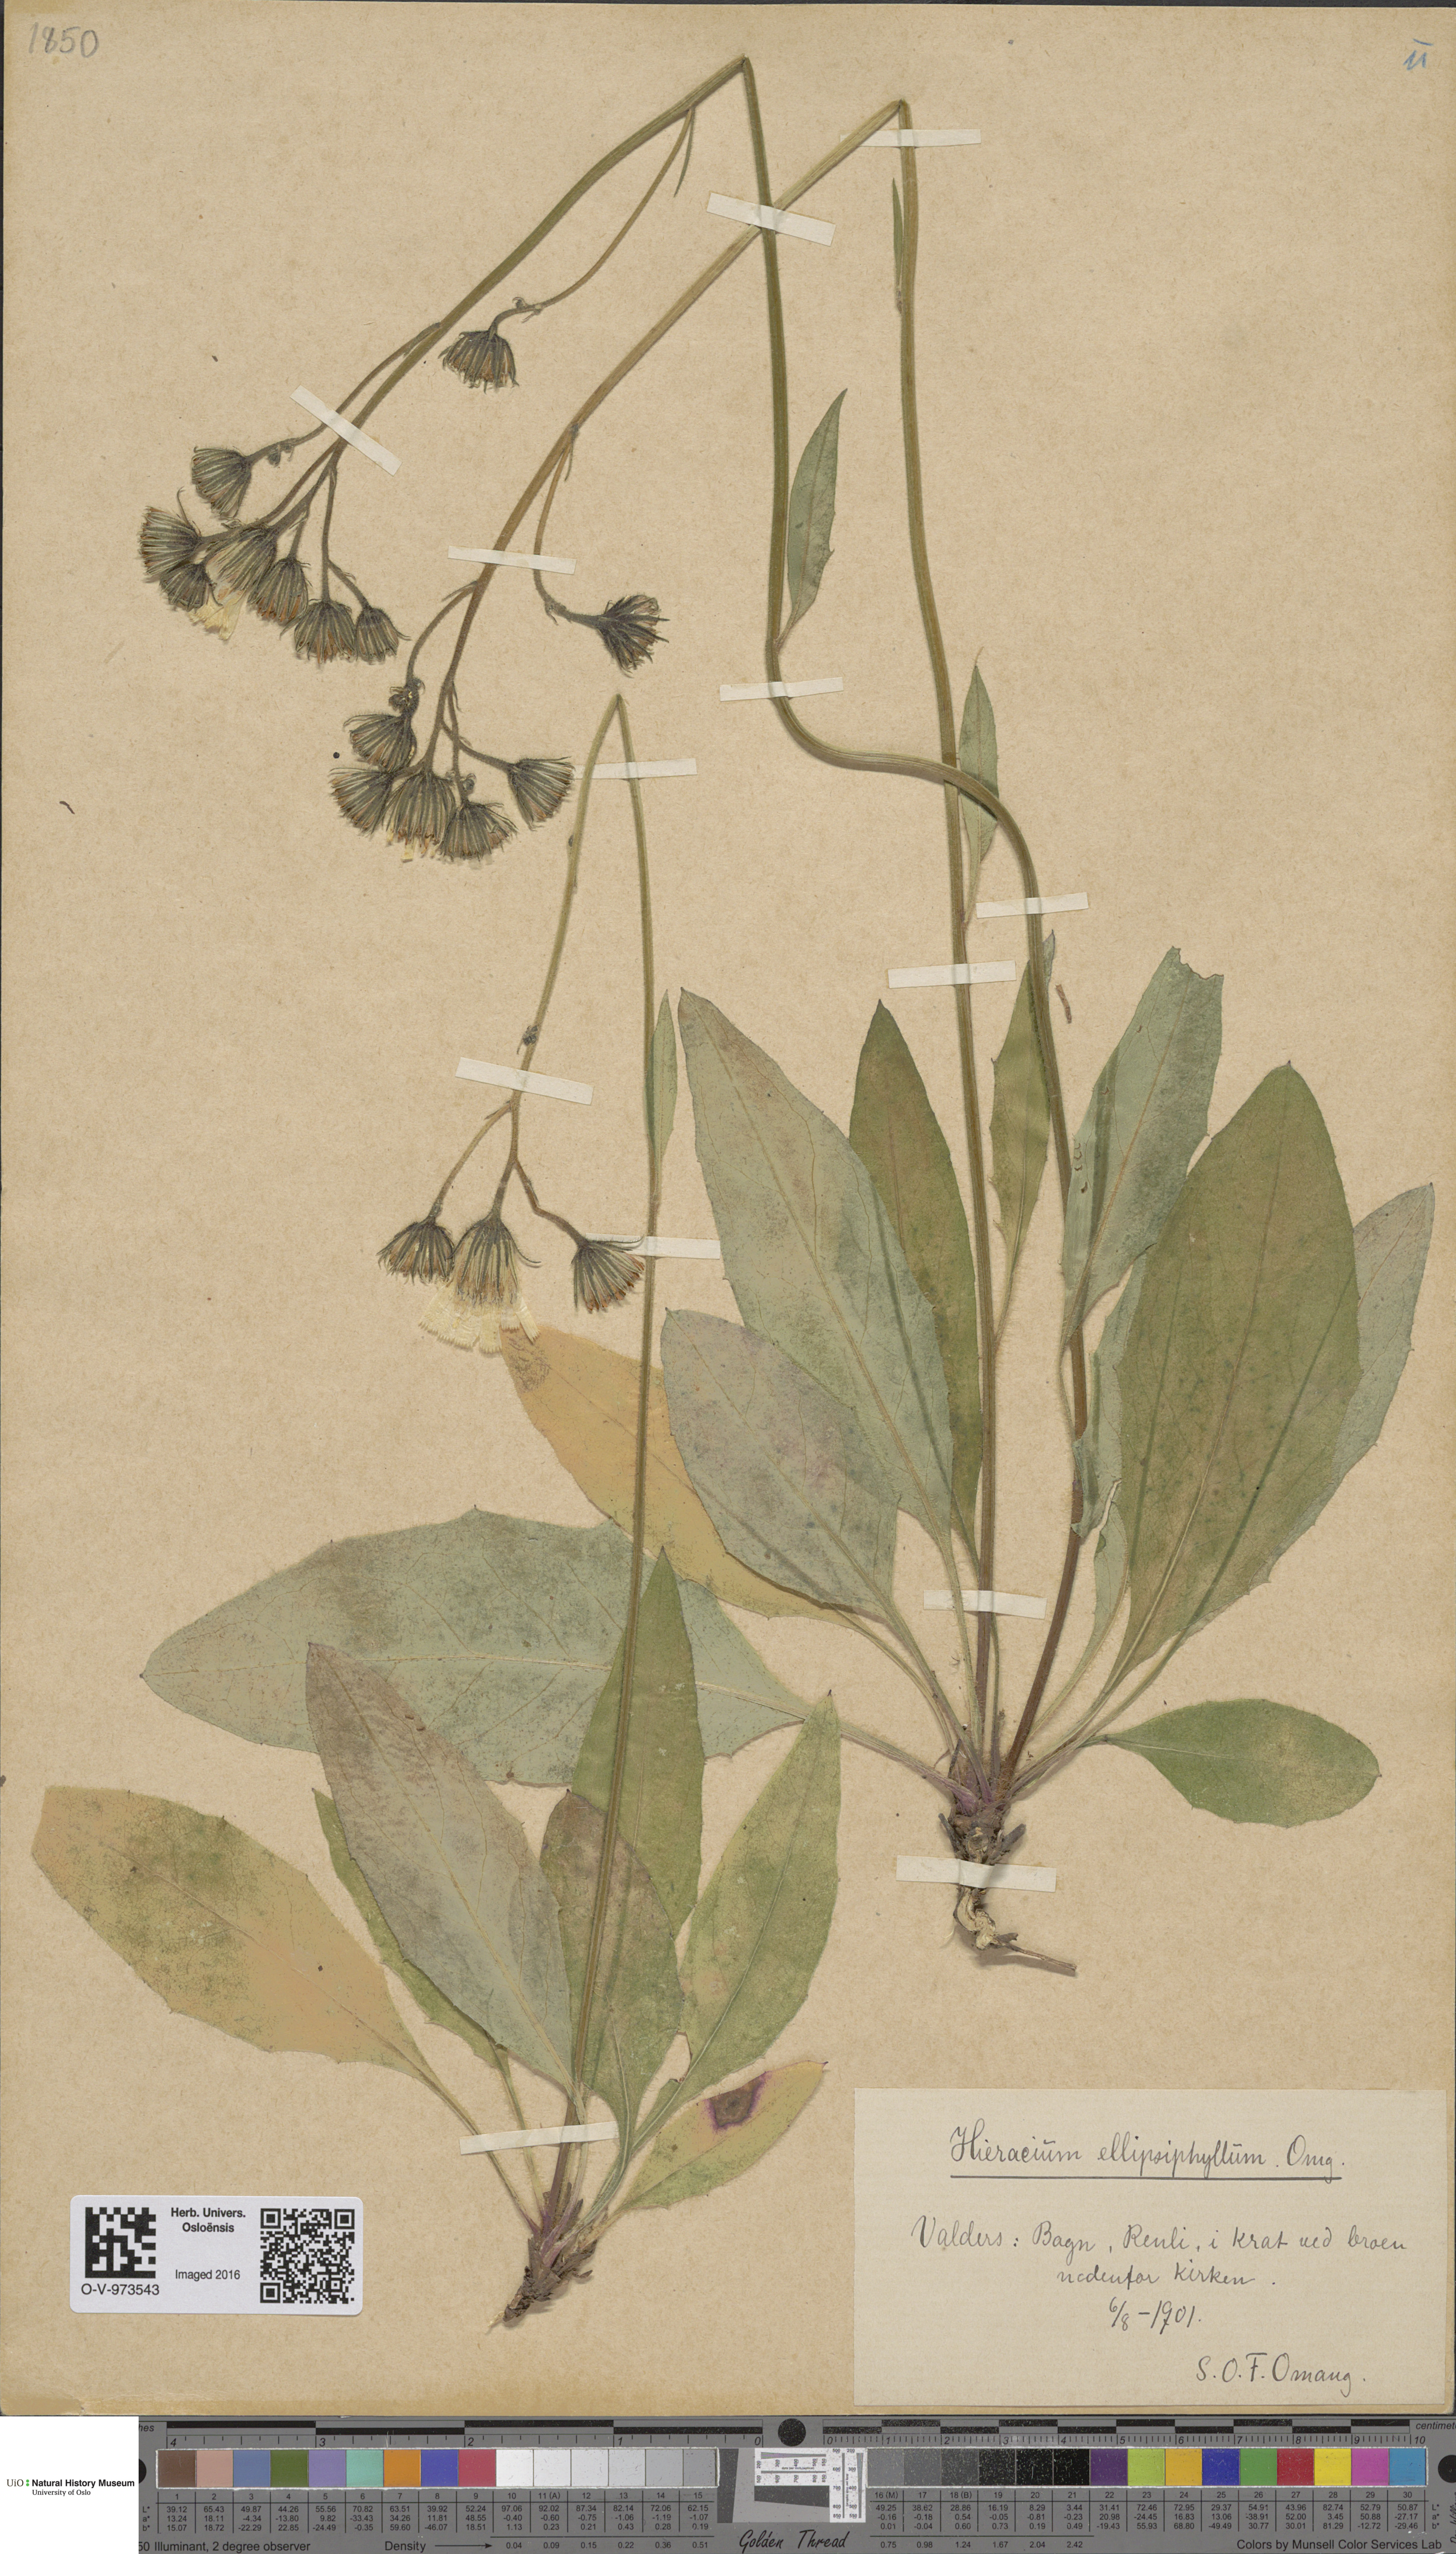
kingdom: Plantae
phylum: Tracheophyta
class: Magnoliopsida
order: Asterales
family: Asteraceae
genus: Hieracium
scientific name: Hieracium
